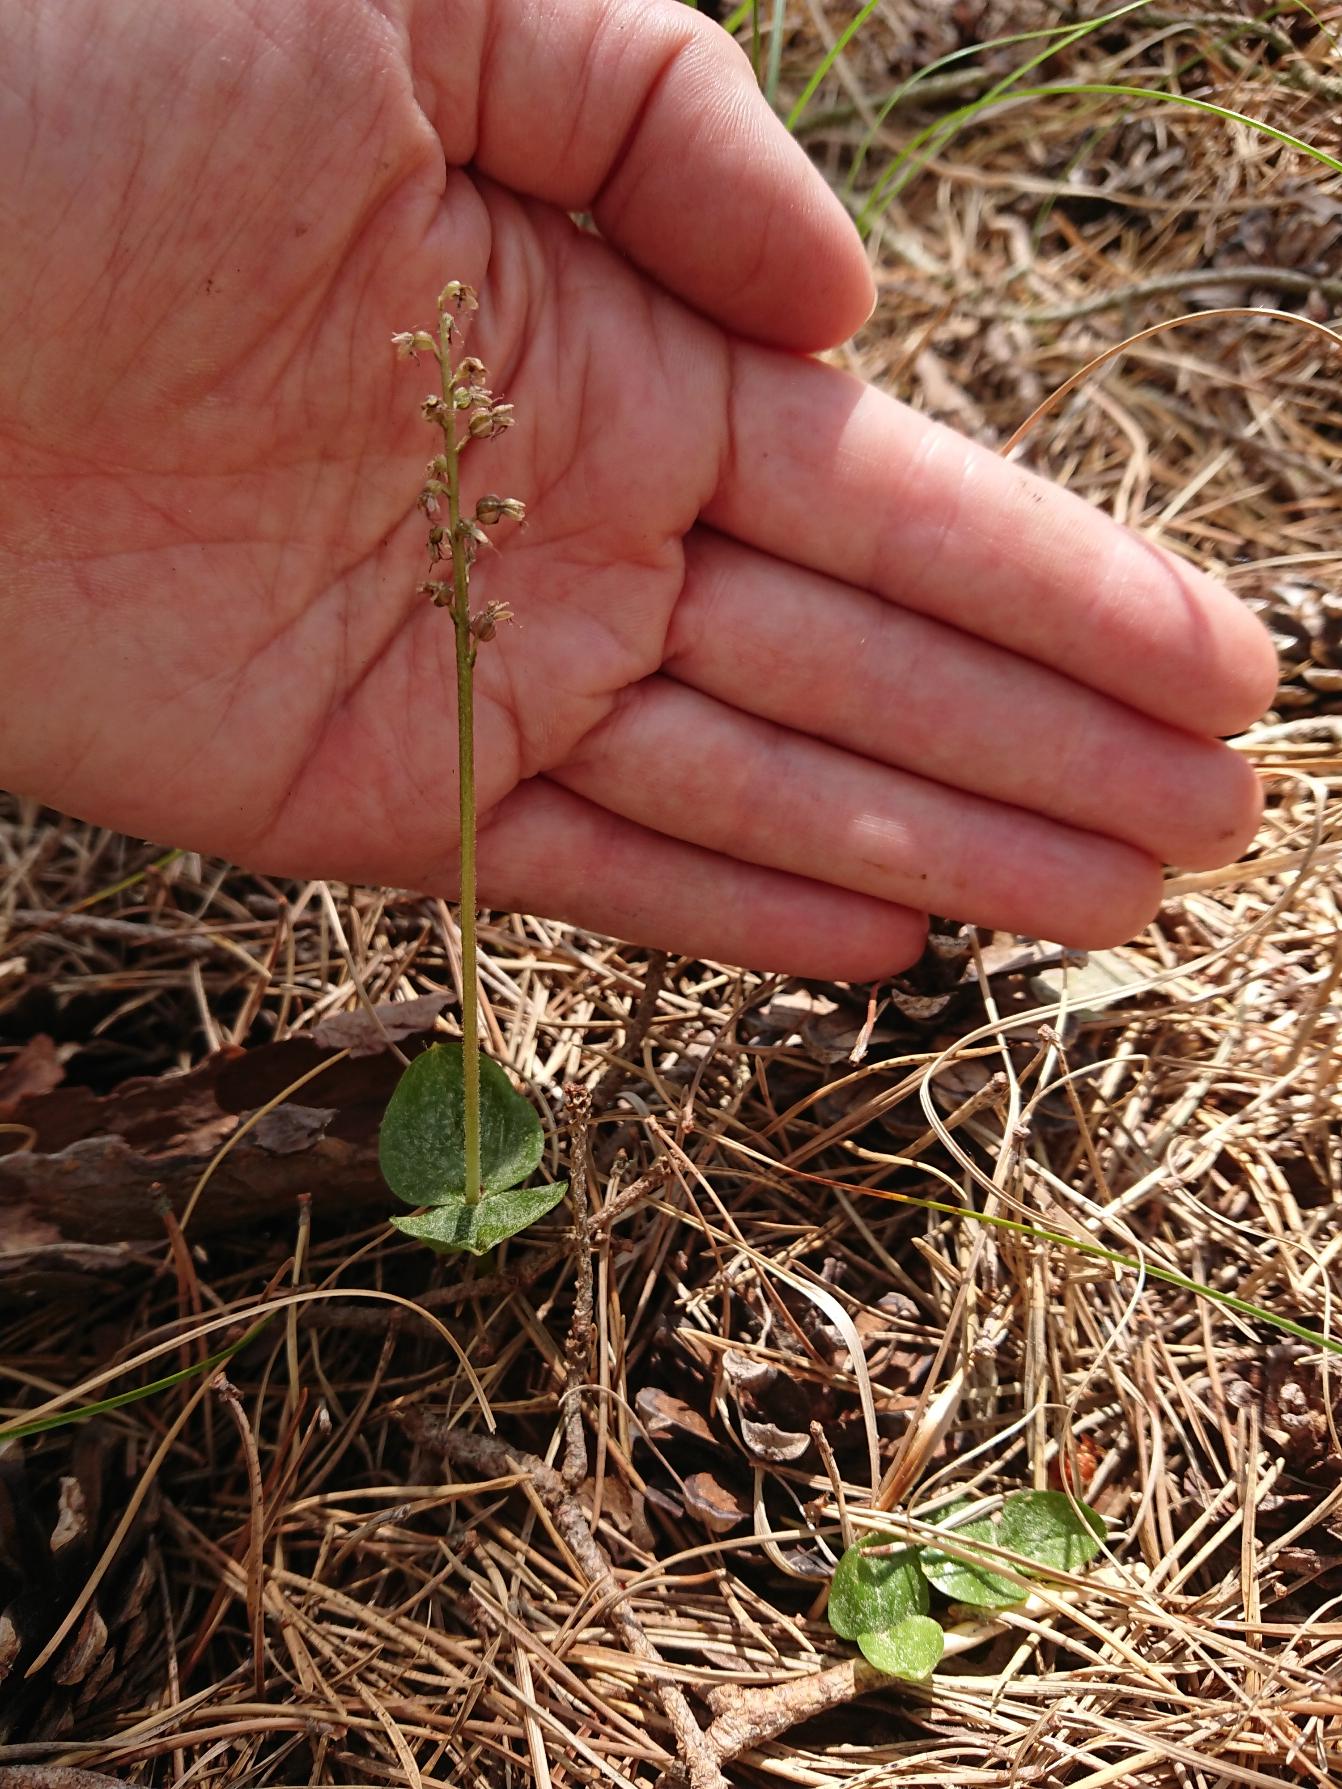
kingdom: Plantae
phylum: Tracheophyta
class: Liliopsida
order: Asparagales
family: Orchidaceae
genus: Neottia
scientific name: Neottia cordata
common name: Hjertebladet fliglæbe
